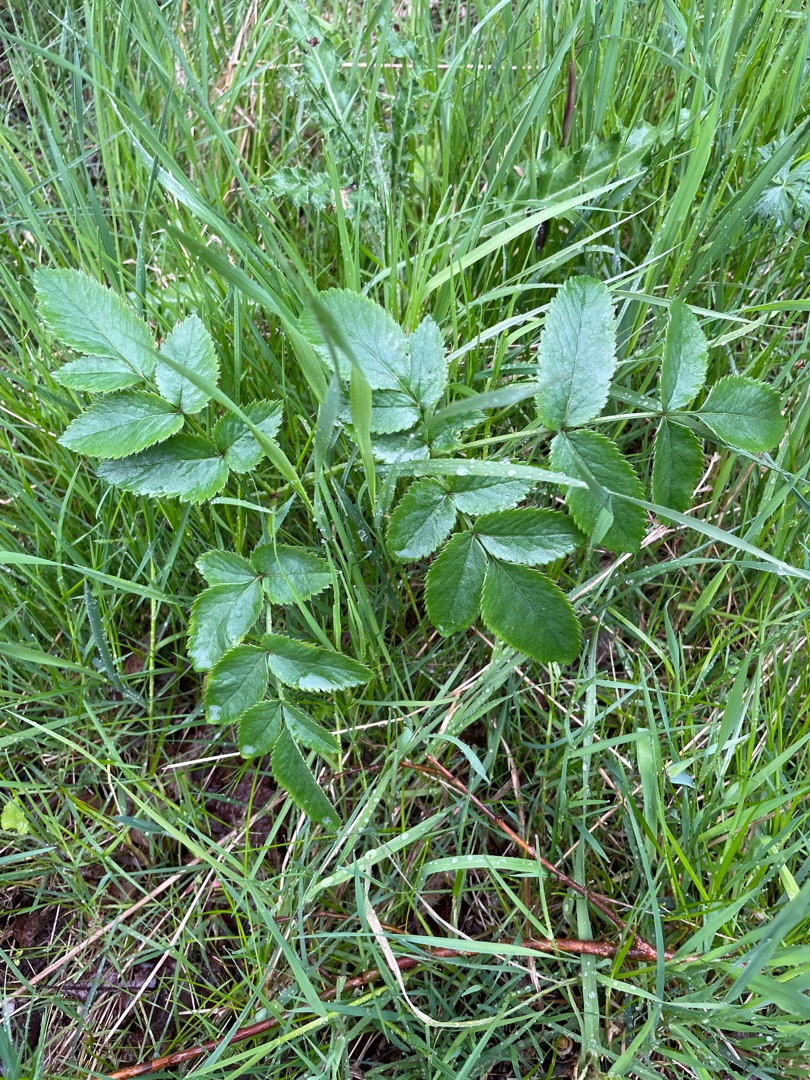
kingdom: Plantae
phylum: Tracheophyta
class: Magnoliopsida
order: Apiales
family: Apiaceae
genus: Angelica
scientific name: Angelica sylvestris
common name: Angelik
